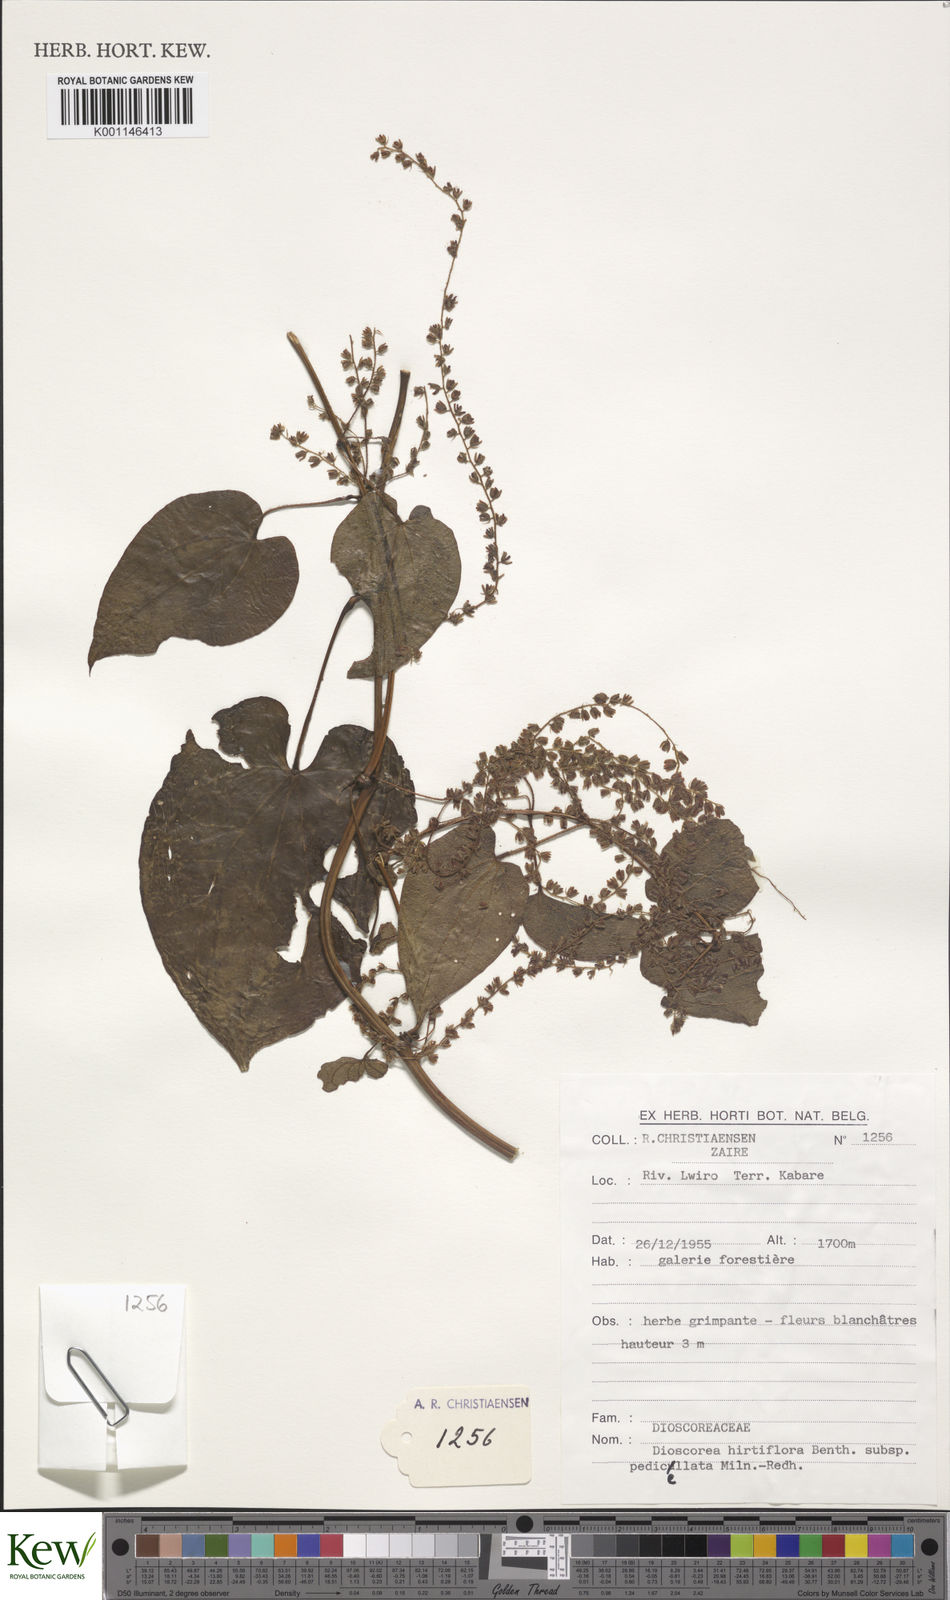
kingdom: Plantae
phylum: Tracheophyta
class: Liliopsida
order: Dioscoreales
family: Dioscoreaceae
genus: Dioscorea
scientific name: Dioscorea hirtiflora
